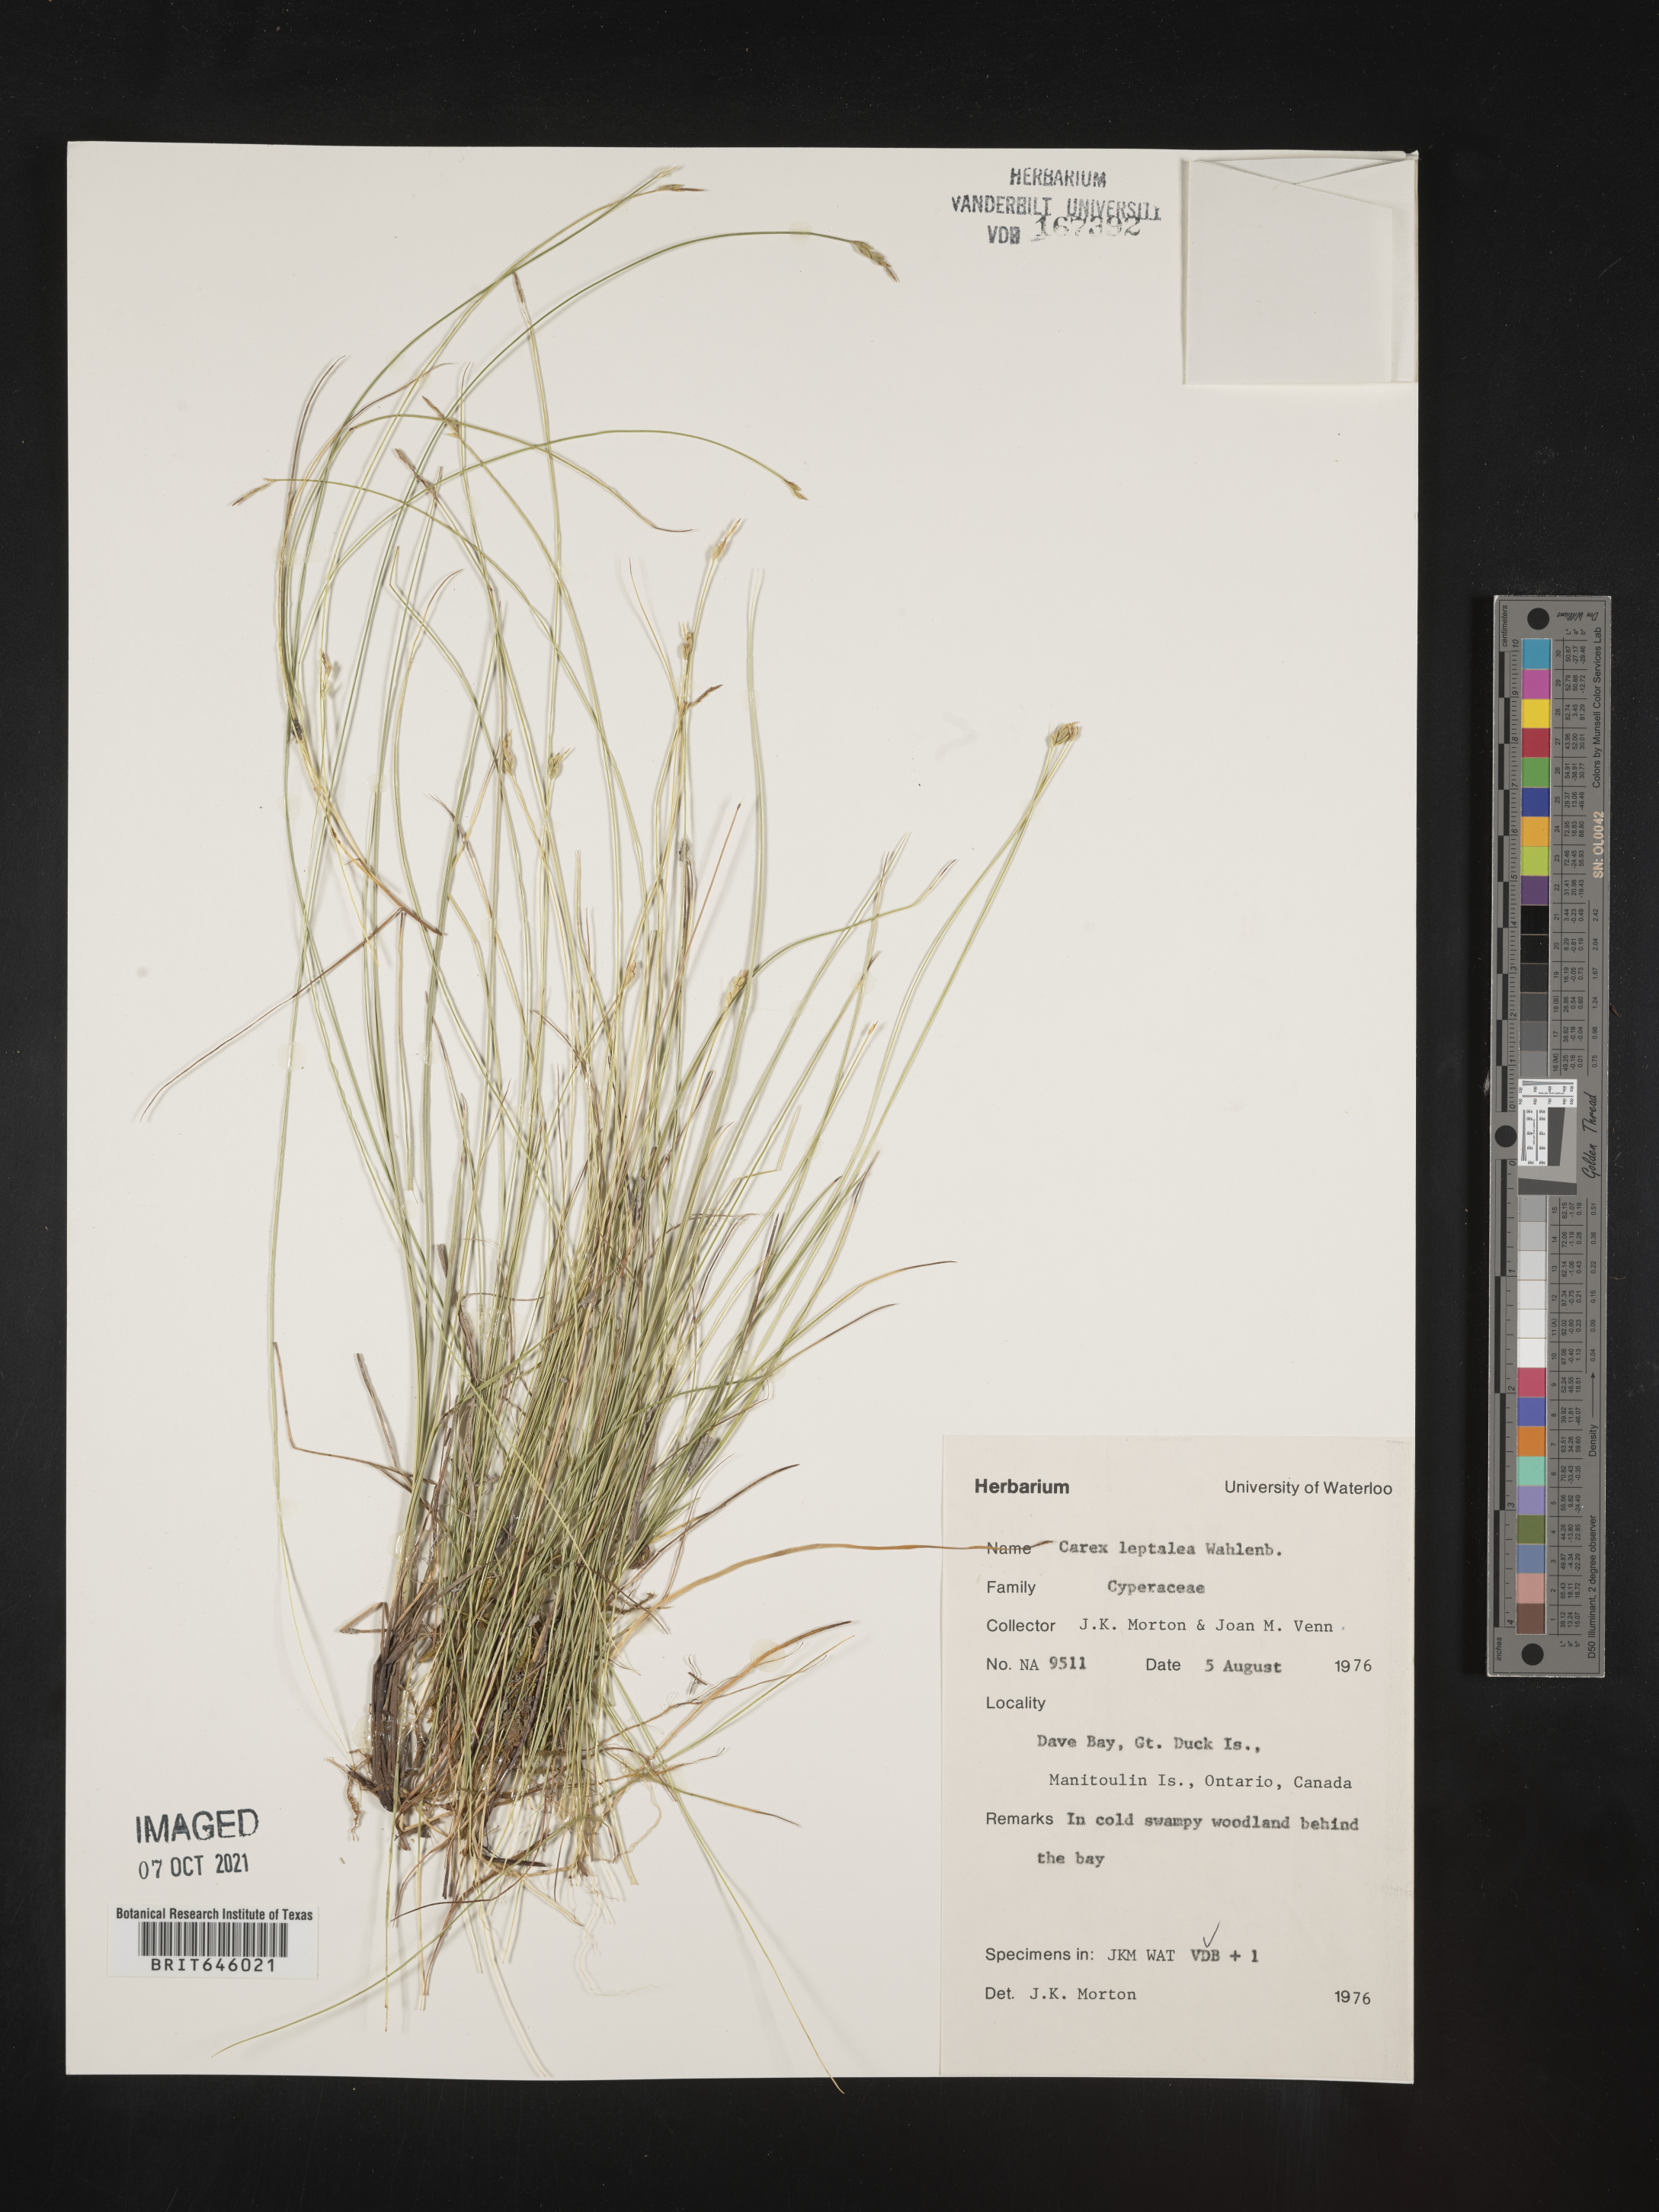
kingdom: Plantae
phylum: Tracheophyta
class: Liliopsida
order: Poales
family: Cyperaceae
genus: Carex
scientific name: Carex leptalea
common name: Bristly-stalked sedge
